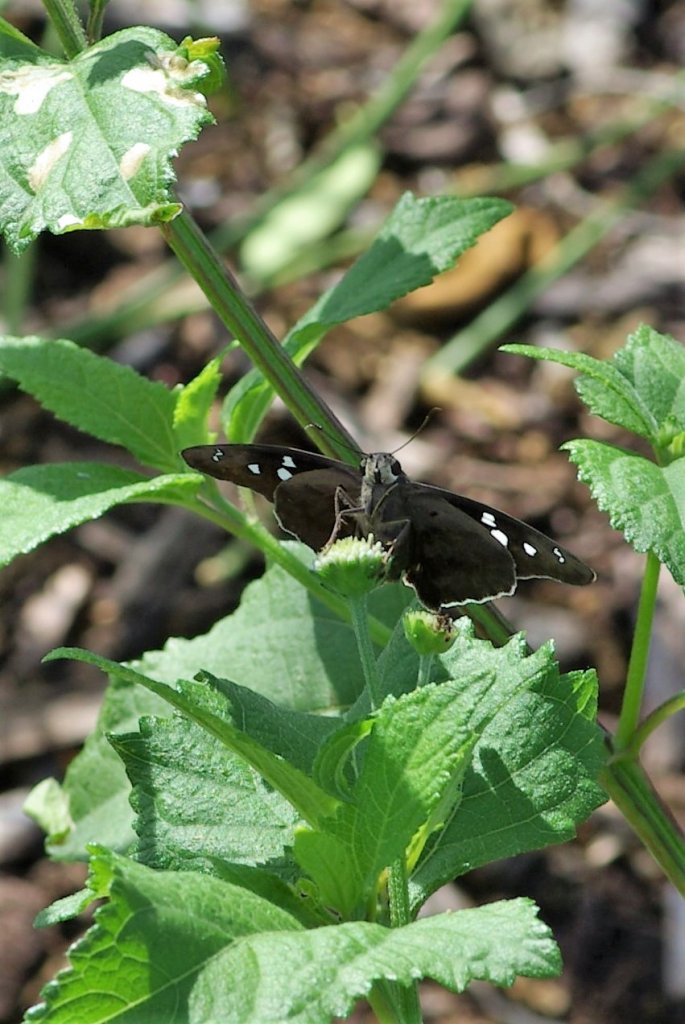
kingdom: Animalia
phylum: Arthropoda
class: Insecta
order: Lepidoptera
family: Hesperiidae
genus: Polygonus
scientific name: Polygonus leo
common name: Hammock Skipper
